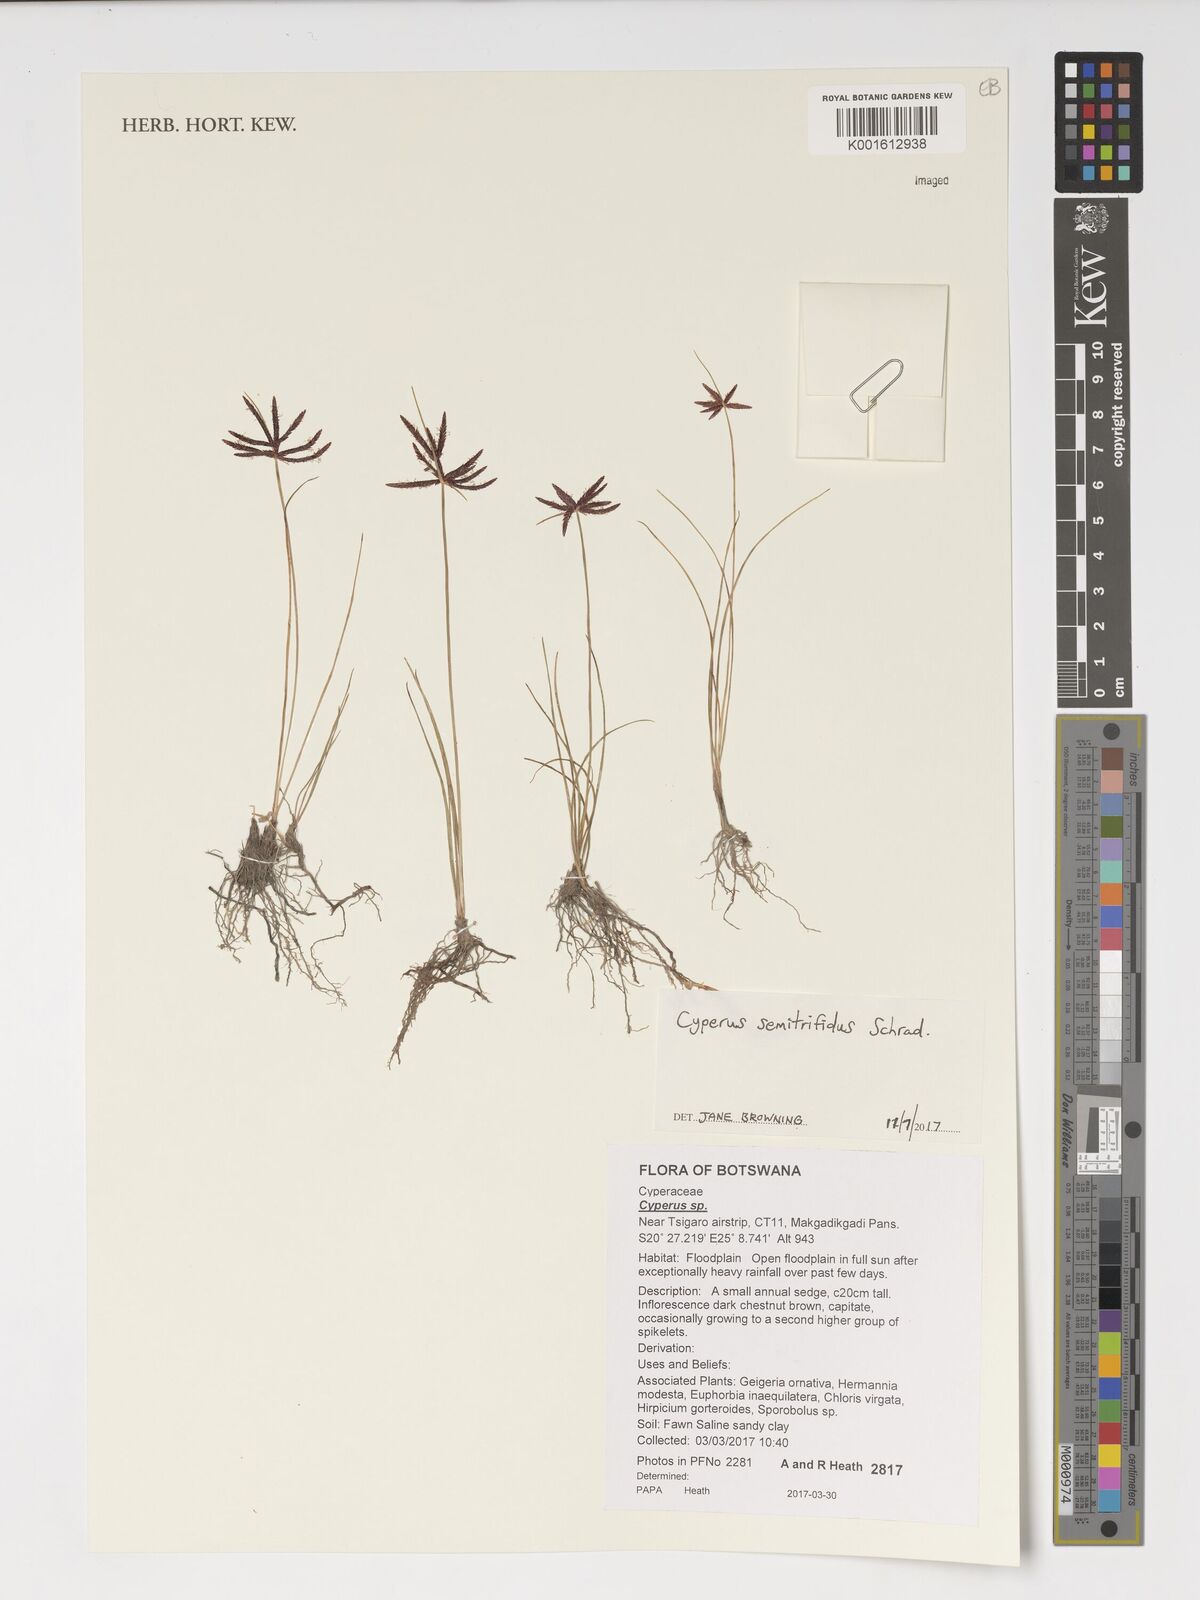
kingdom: Plantae
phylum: Tracheophyta
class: Liliopsida
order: Poales
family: Cyperaceae
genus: Cyperus
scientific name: Cyperus semitrifidus
